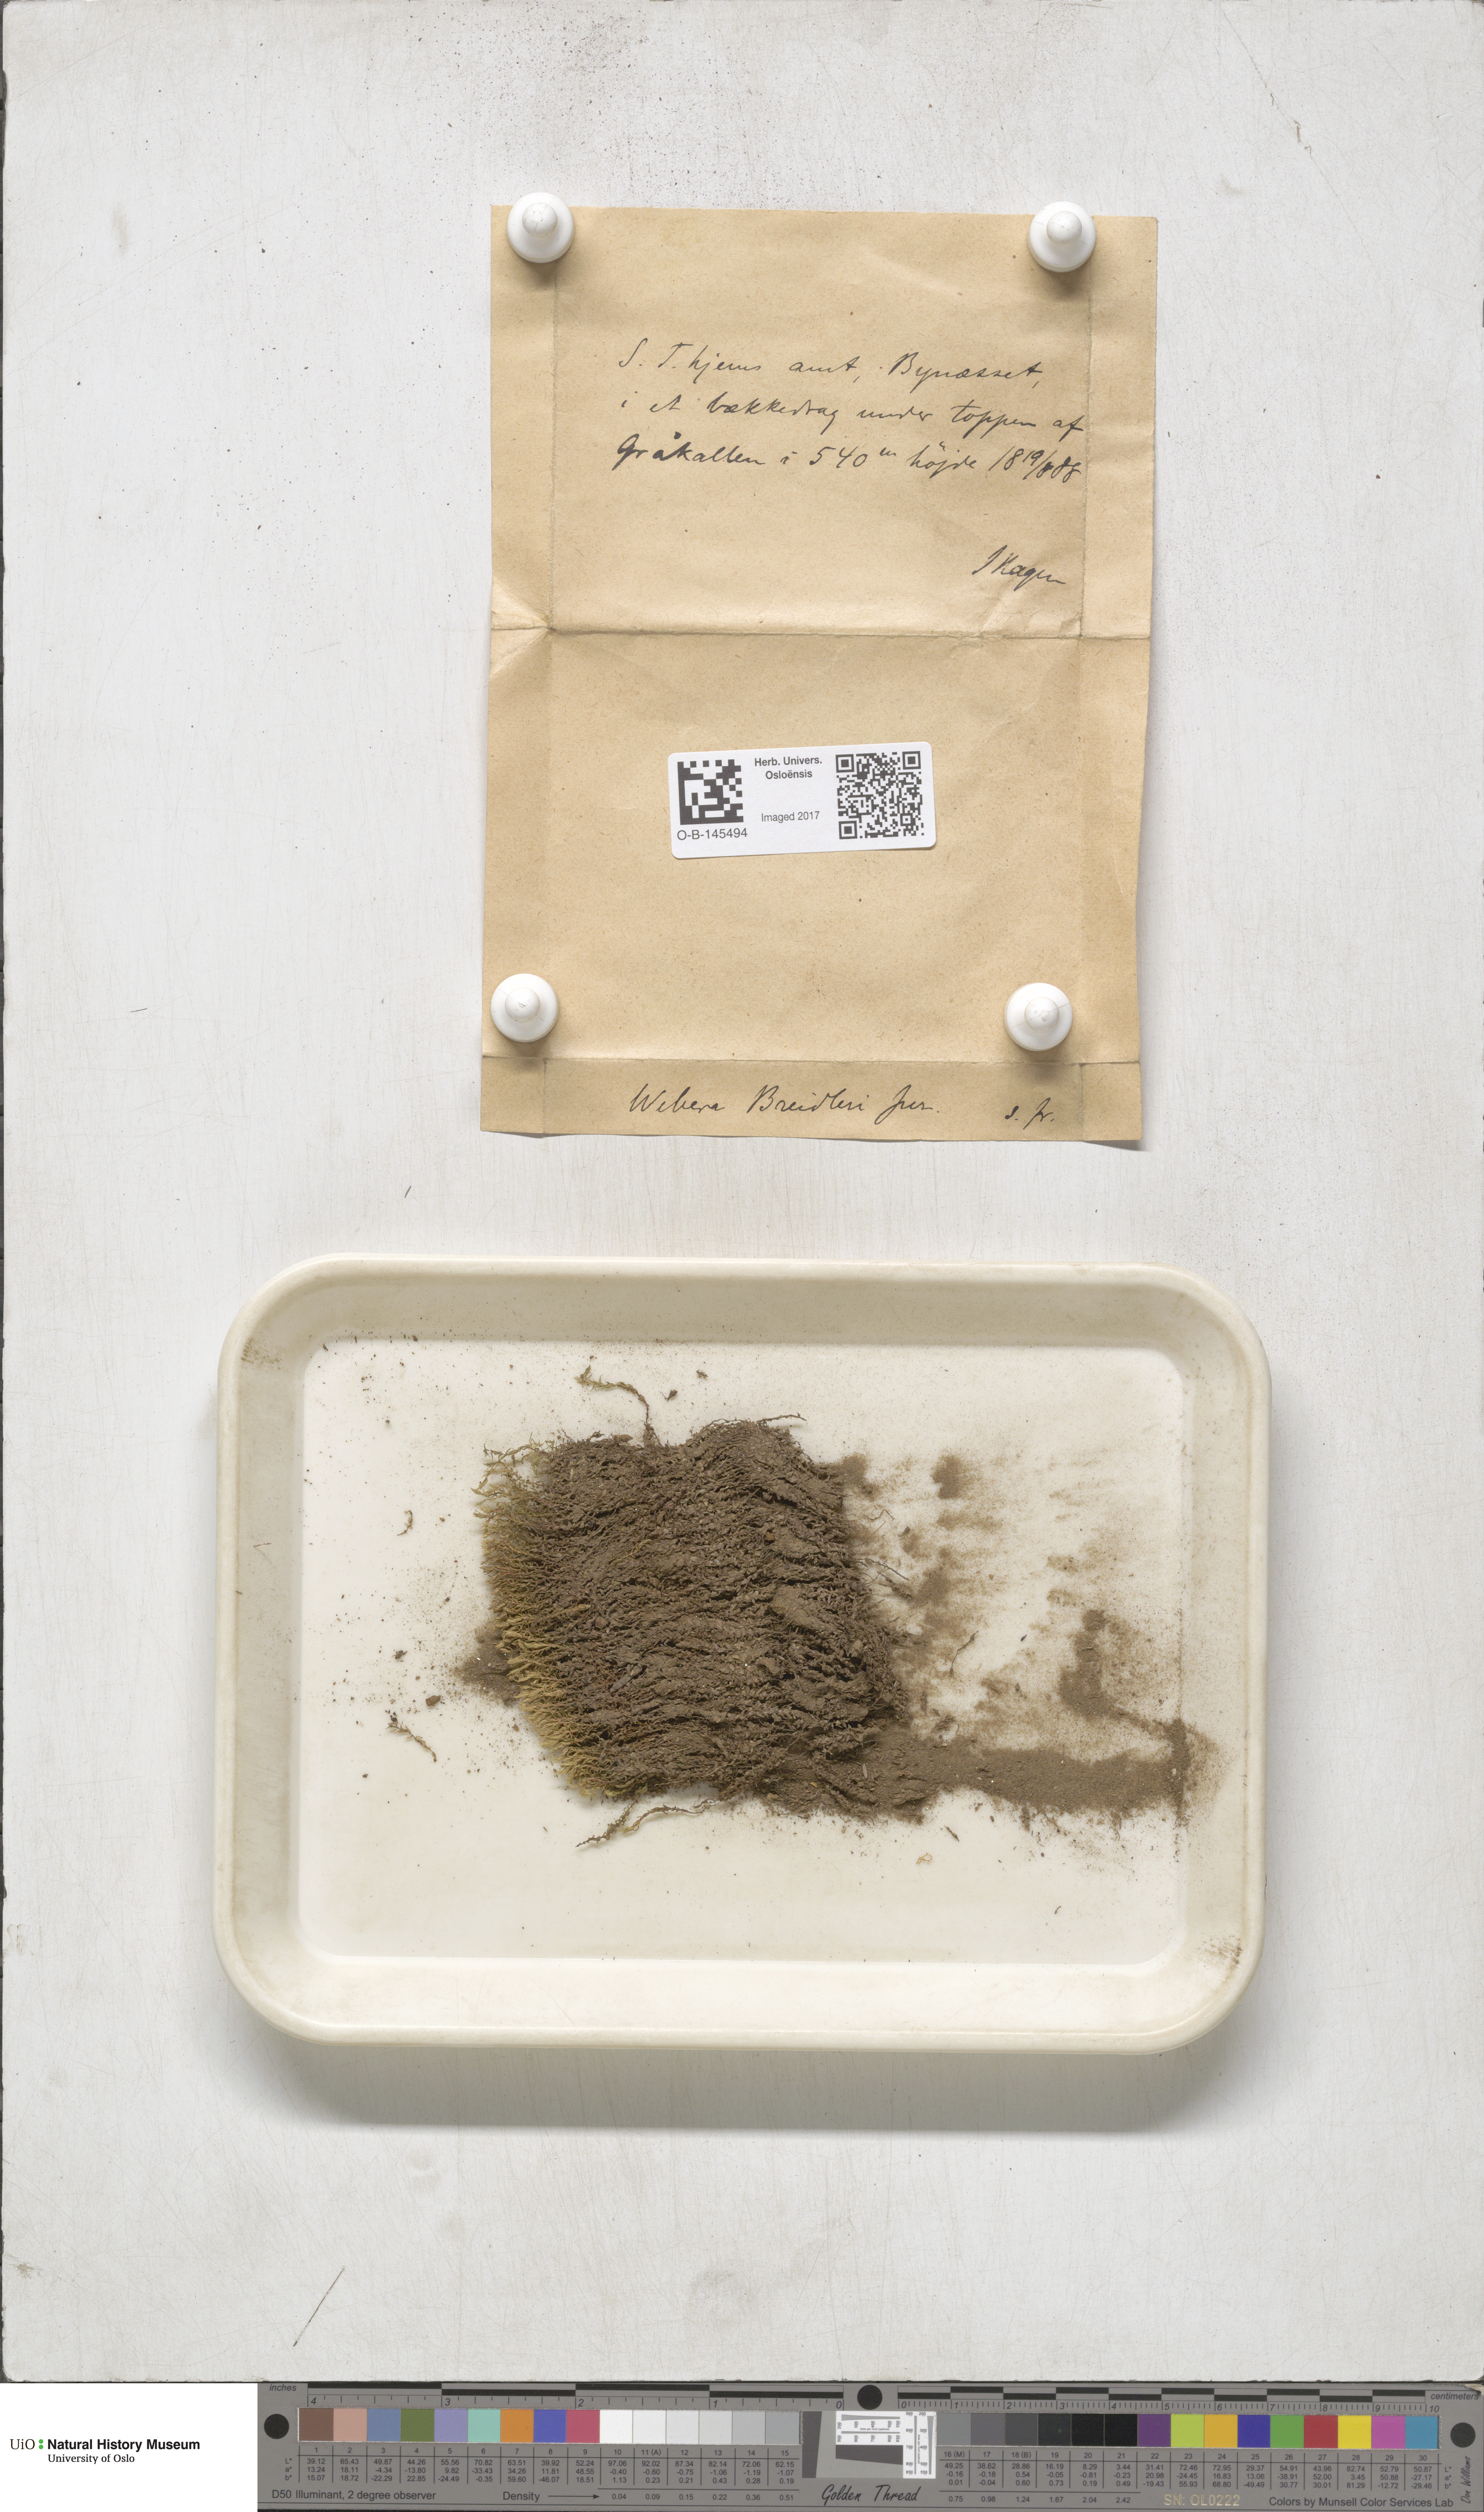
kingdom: Plantae
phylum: Bryophyta
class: Bryopsida
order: Bryales
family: Mniaceae
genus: Pohlia
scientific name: Pohlia ludwigii
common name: Ludwig's thread-moss
